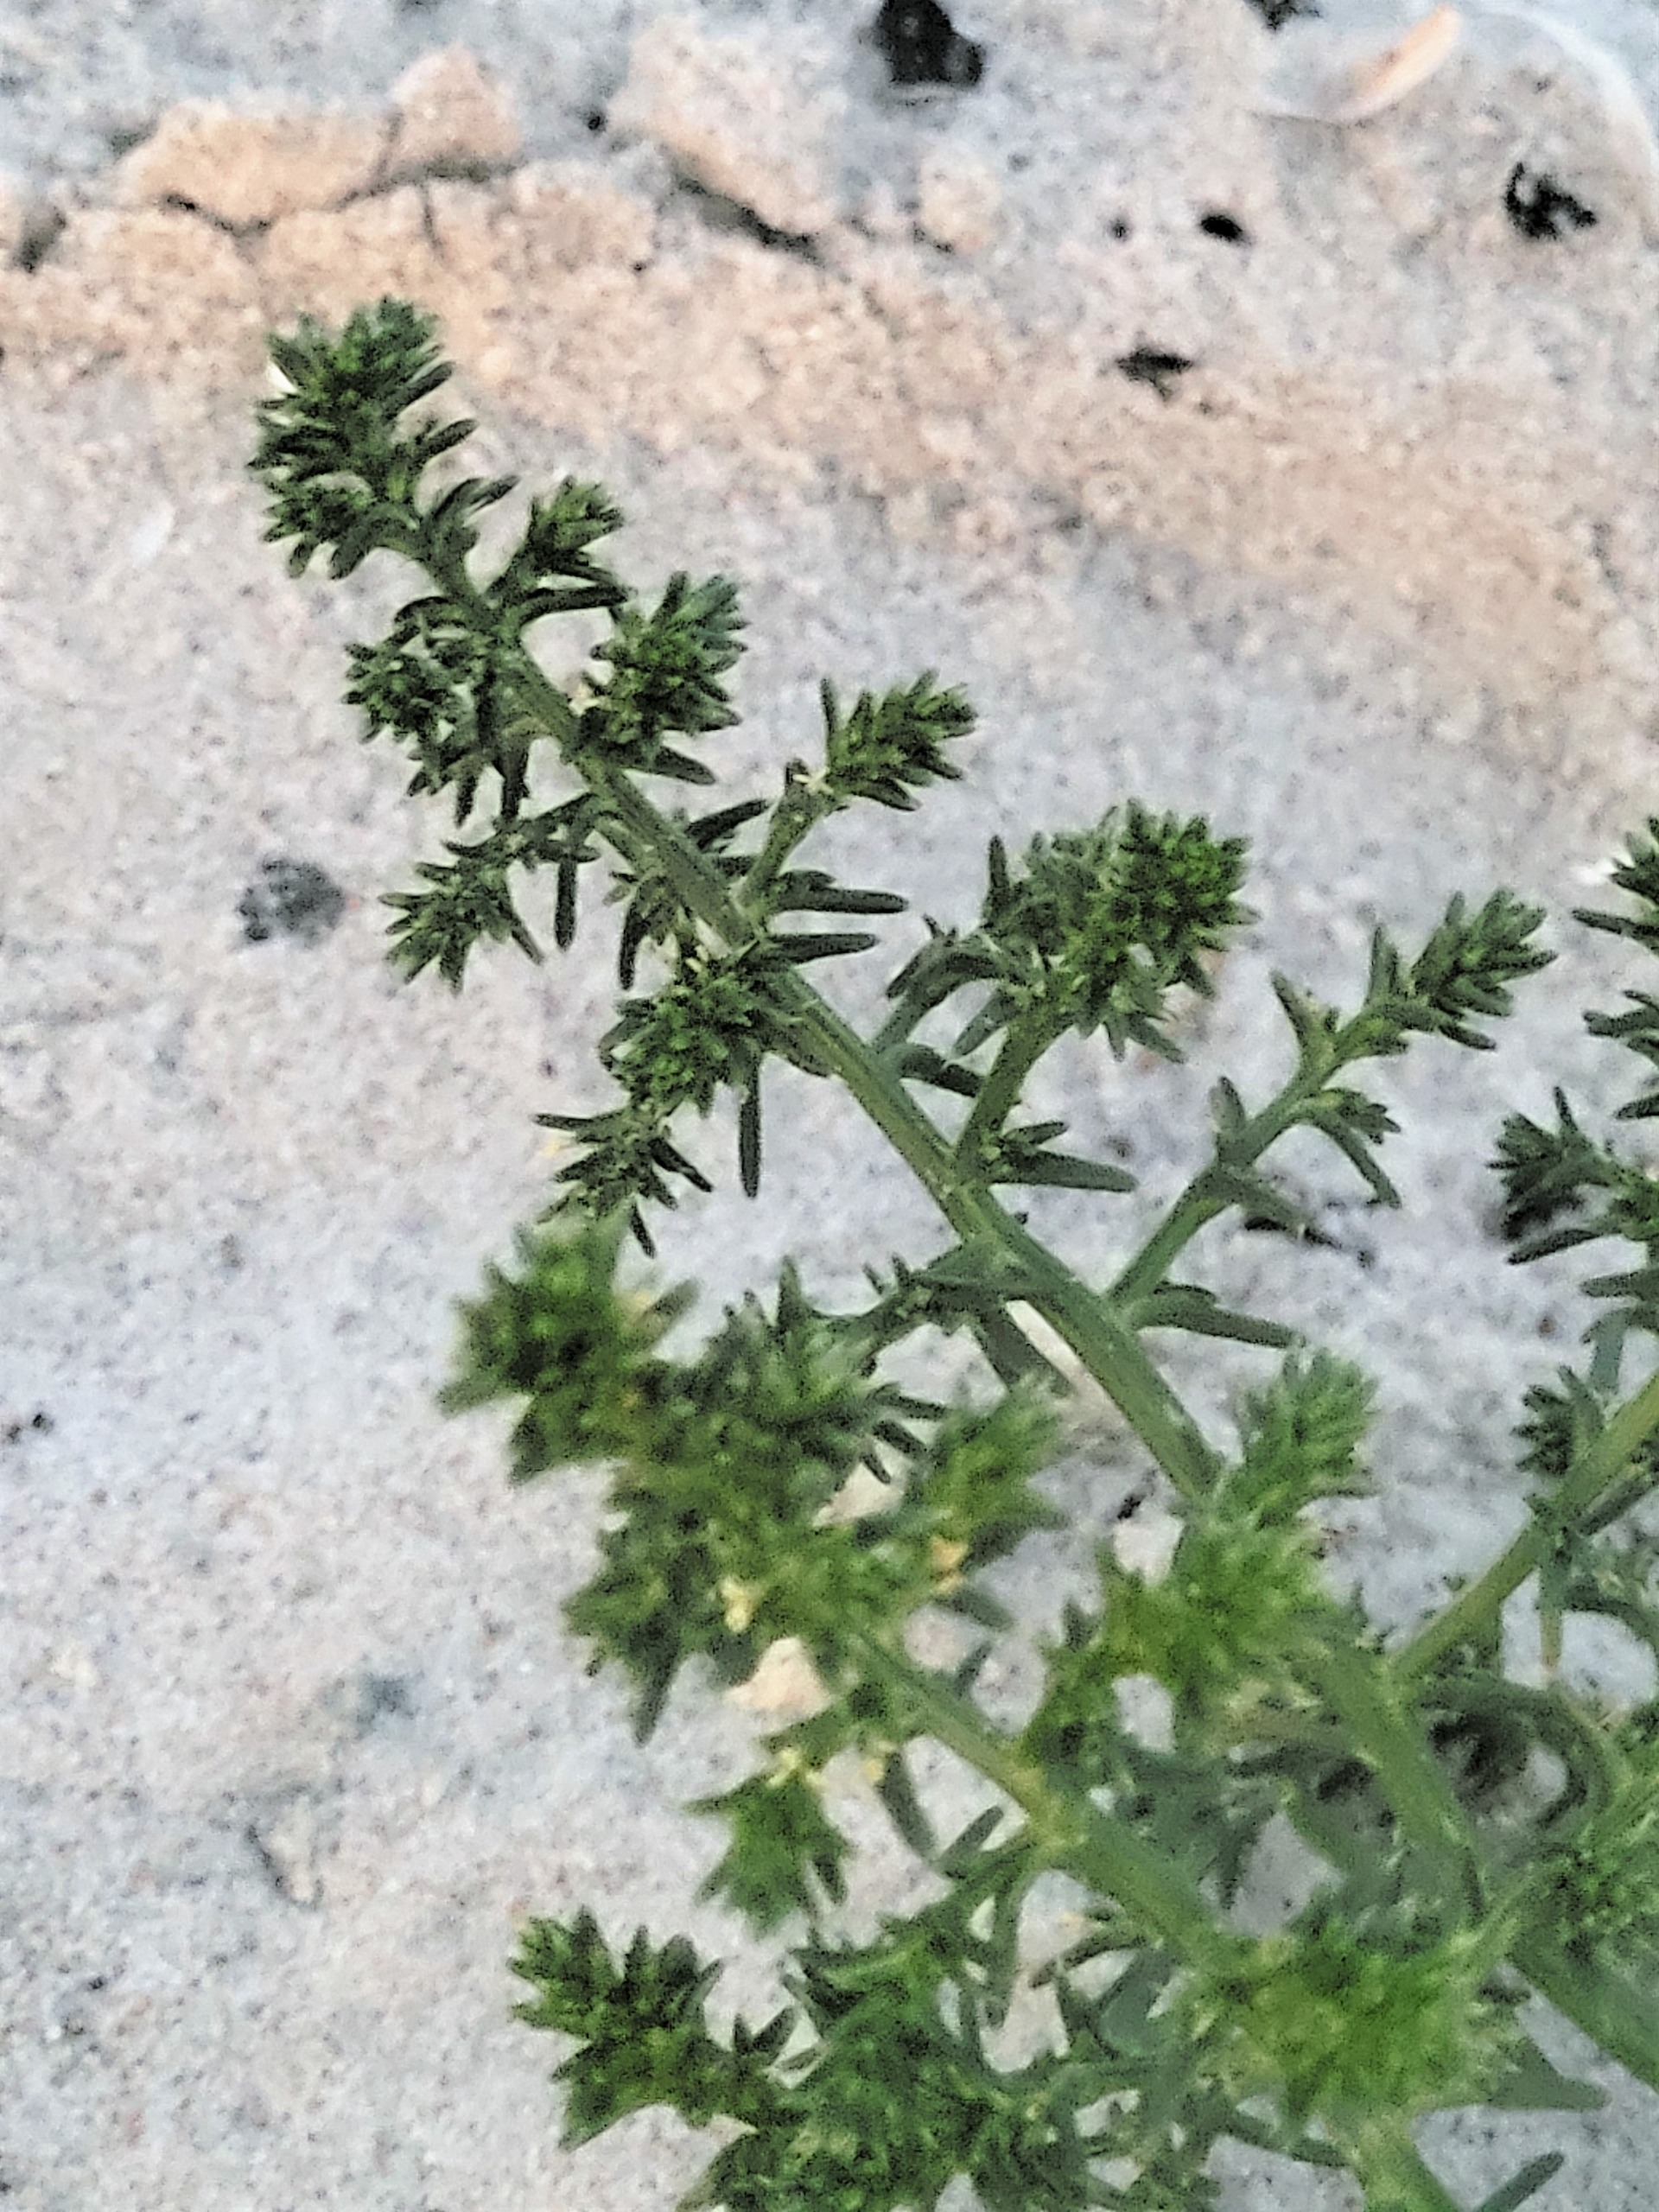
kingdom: Plantae
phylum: Tracheophyta
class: Magnoliopsida
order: Caryophyllales
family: Amaranthaceae
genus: Salsola
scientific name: Salsola kali
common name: Sodaurt
